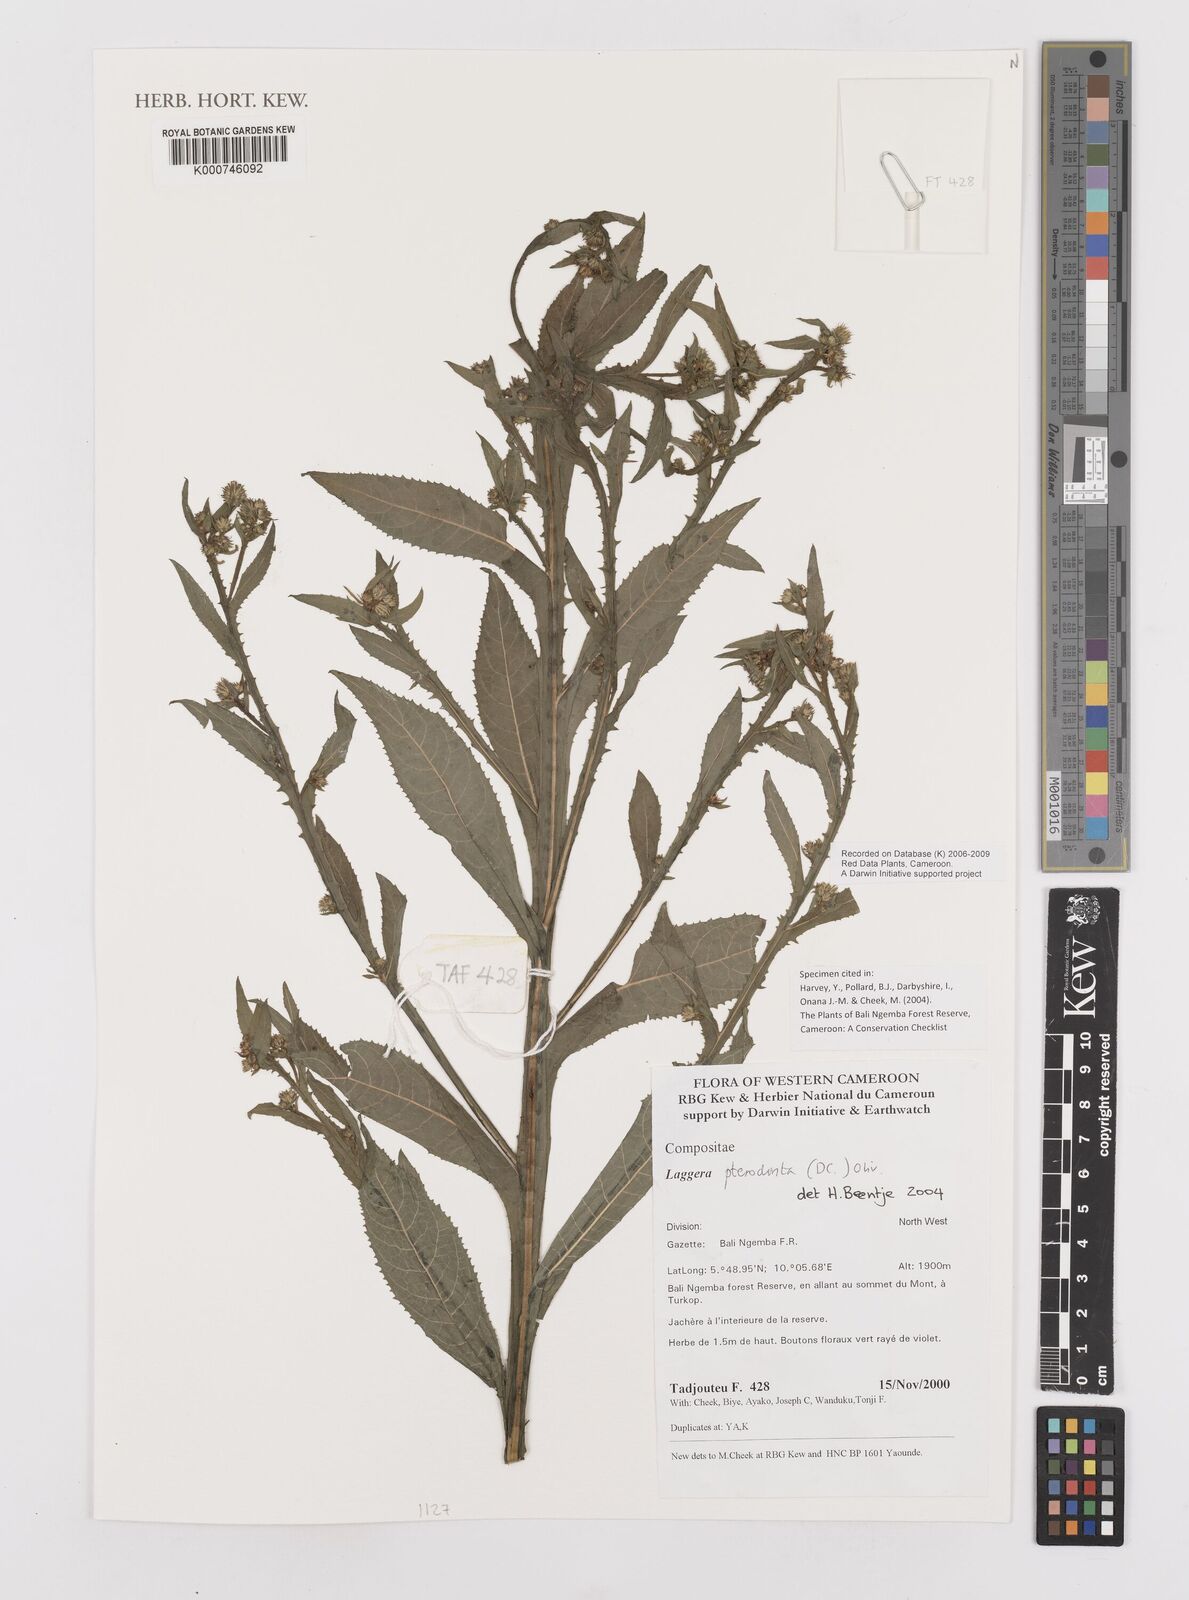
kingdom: Plantae
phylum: Tracheophyta
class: Magnoliopsida
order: Asterales
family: Asteraceae
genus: Laggera
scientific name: Laggera crispata
